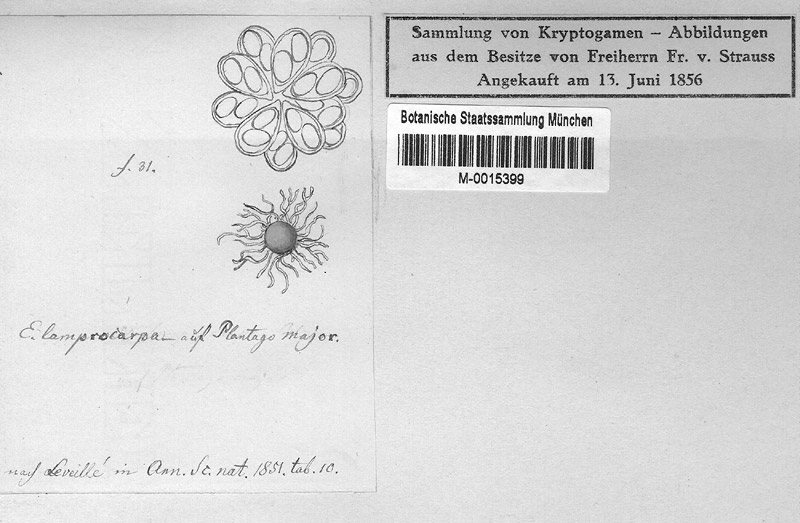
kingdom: Plantae
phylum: Tracheophyta
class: Magnoliopsida
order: Lamiales
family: Plantaginaceae
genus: Plantago
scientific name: Plantago major
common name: Common plantain
